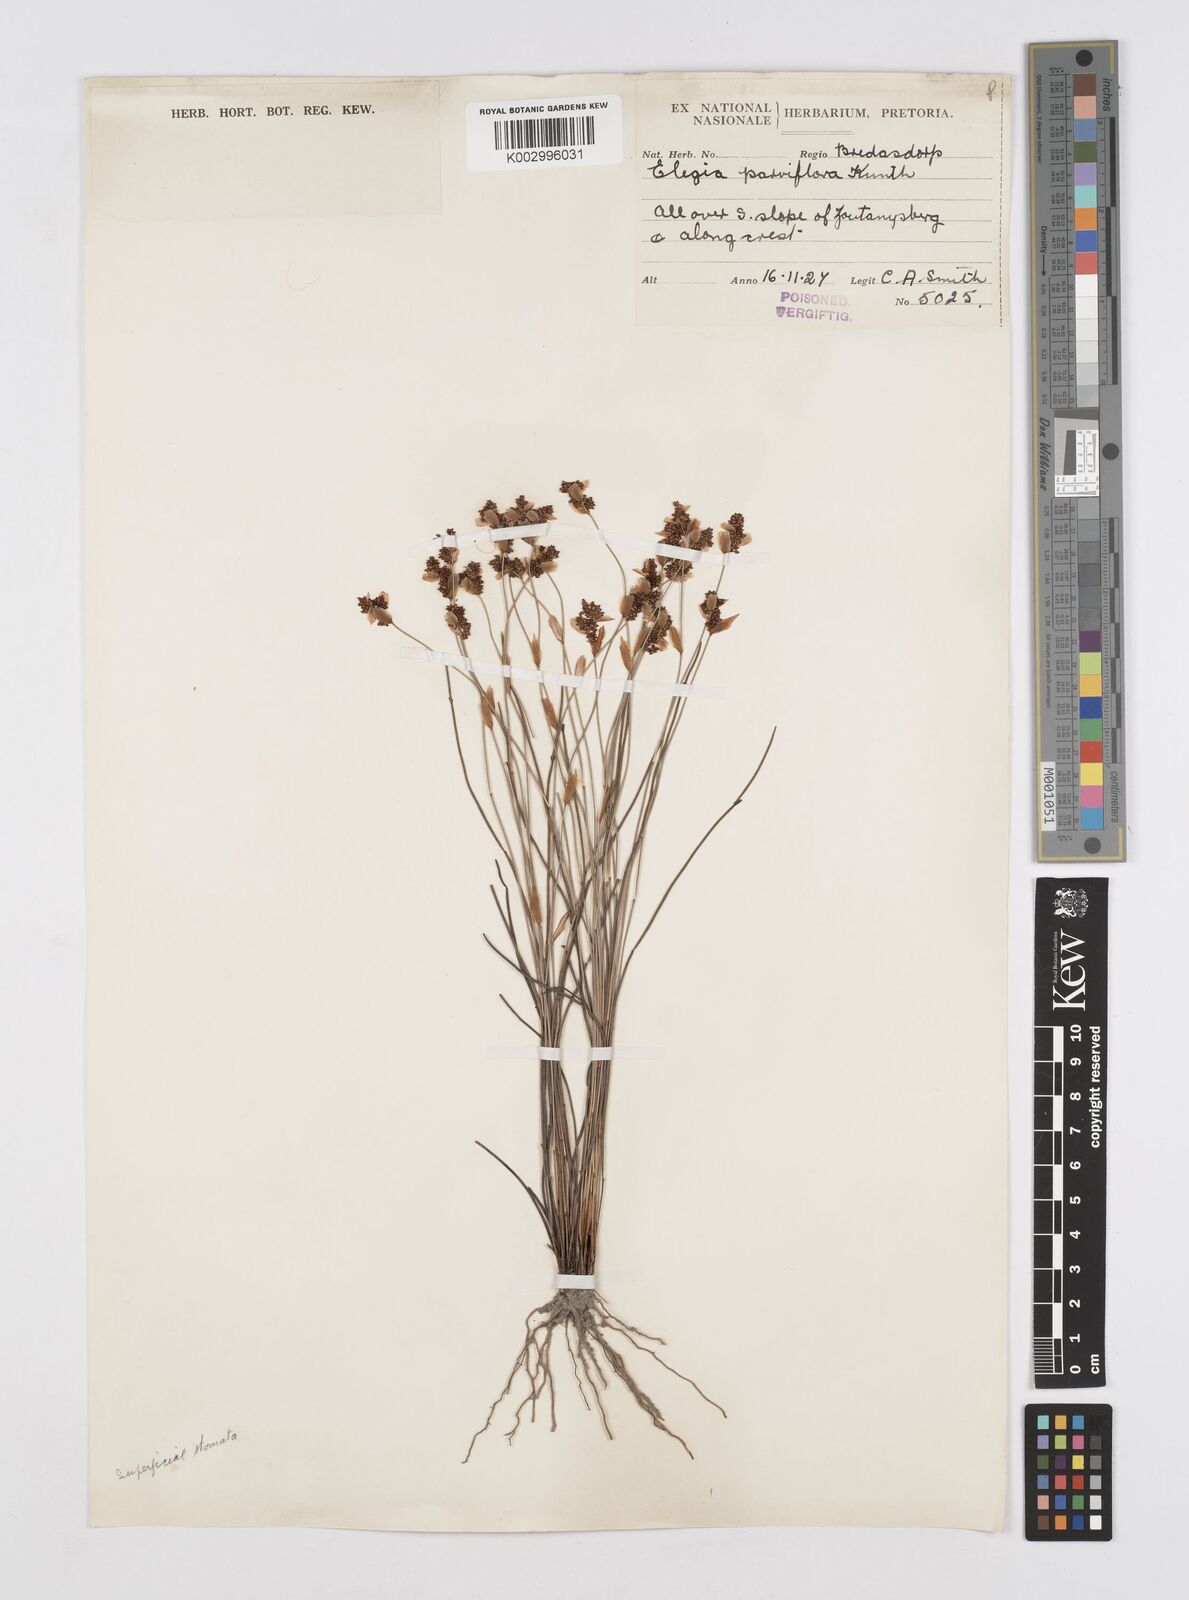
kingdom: Plantae
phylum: Tracheophyta
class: Liliopsida
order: Poales
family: Restionaceae
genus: Cannomois
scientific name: Cannomois parviflora
